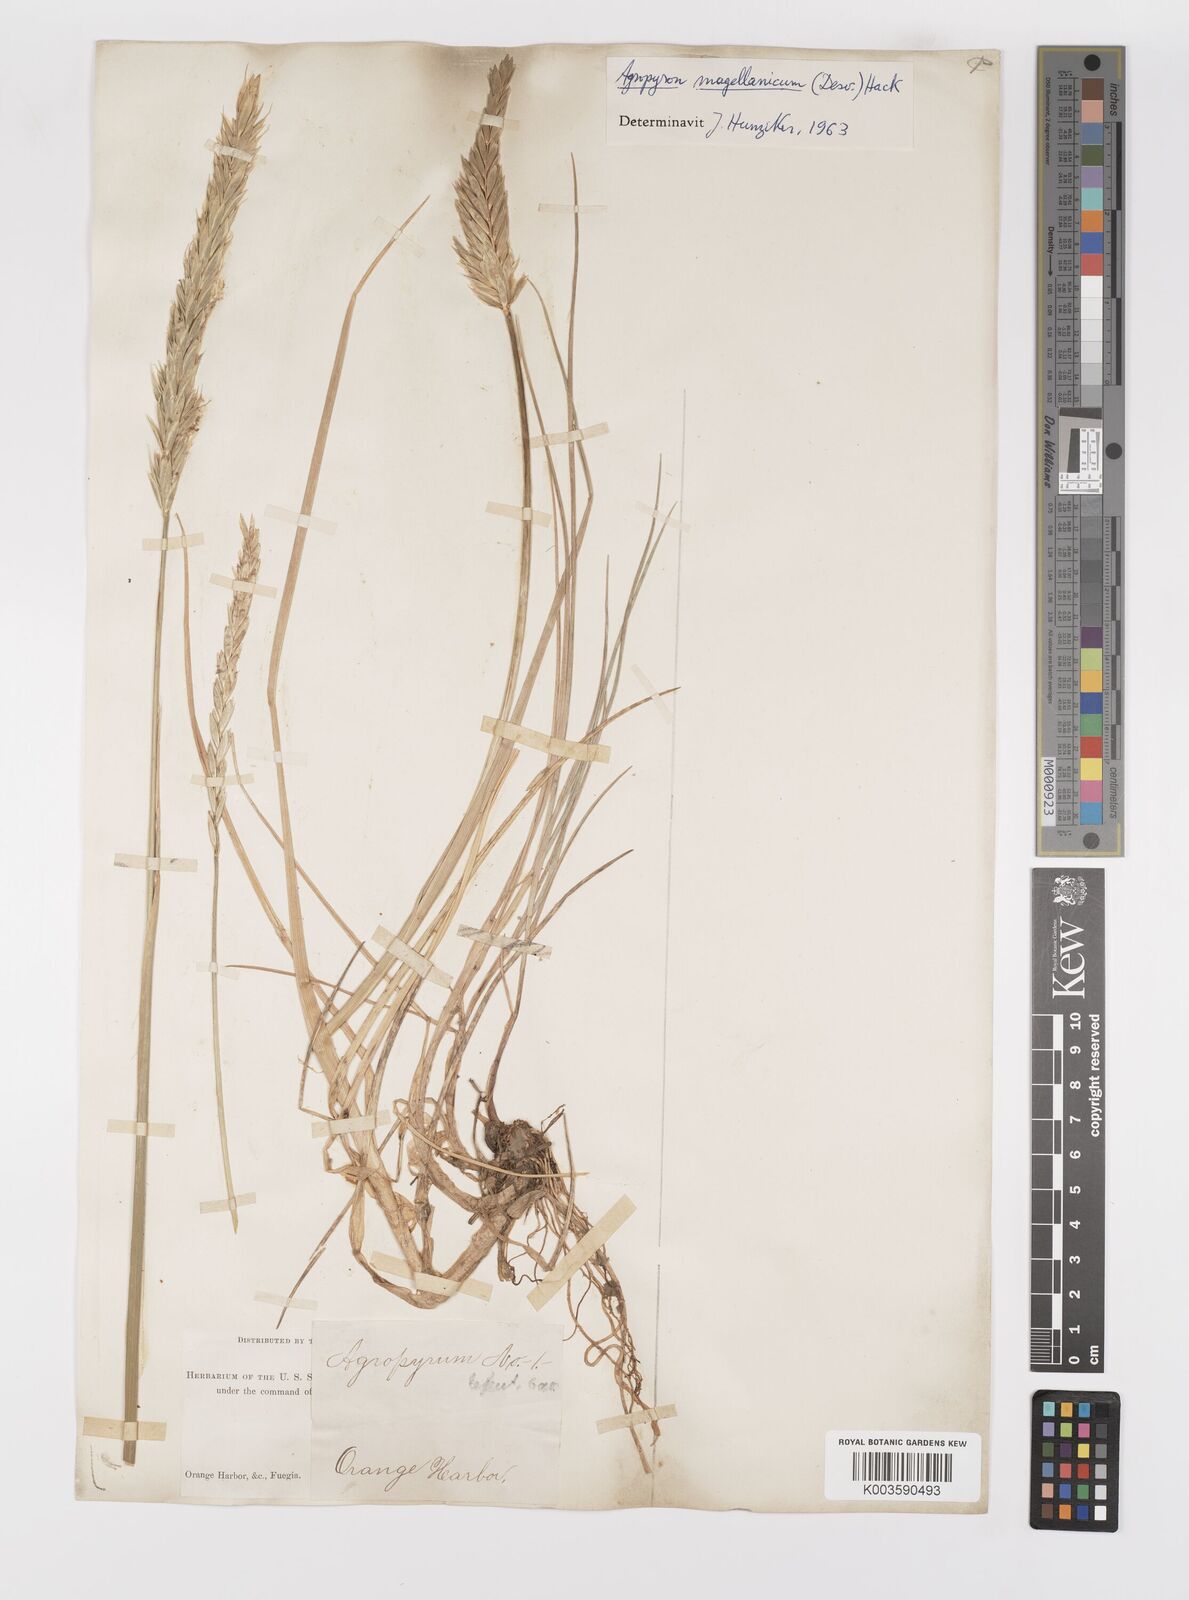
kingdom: Plantae
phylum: Tracheophyta
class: Liliopsida
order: Poales
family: Poaceae
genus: Elymus
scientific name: Elymus magellanicus
